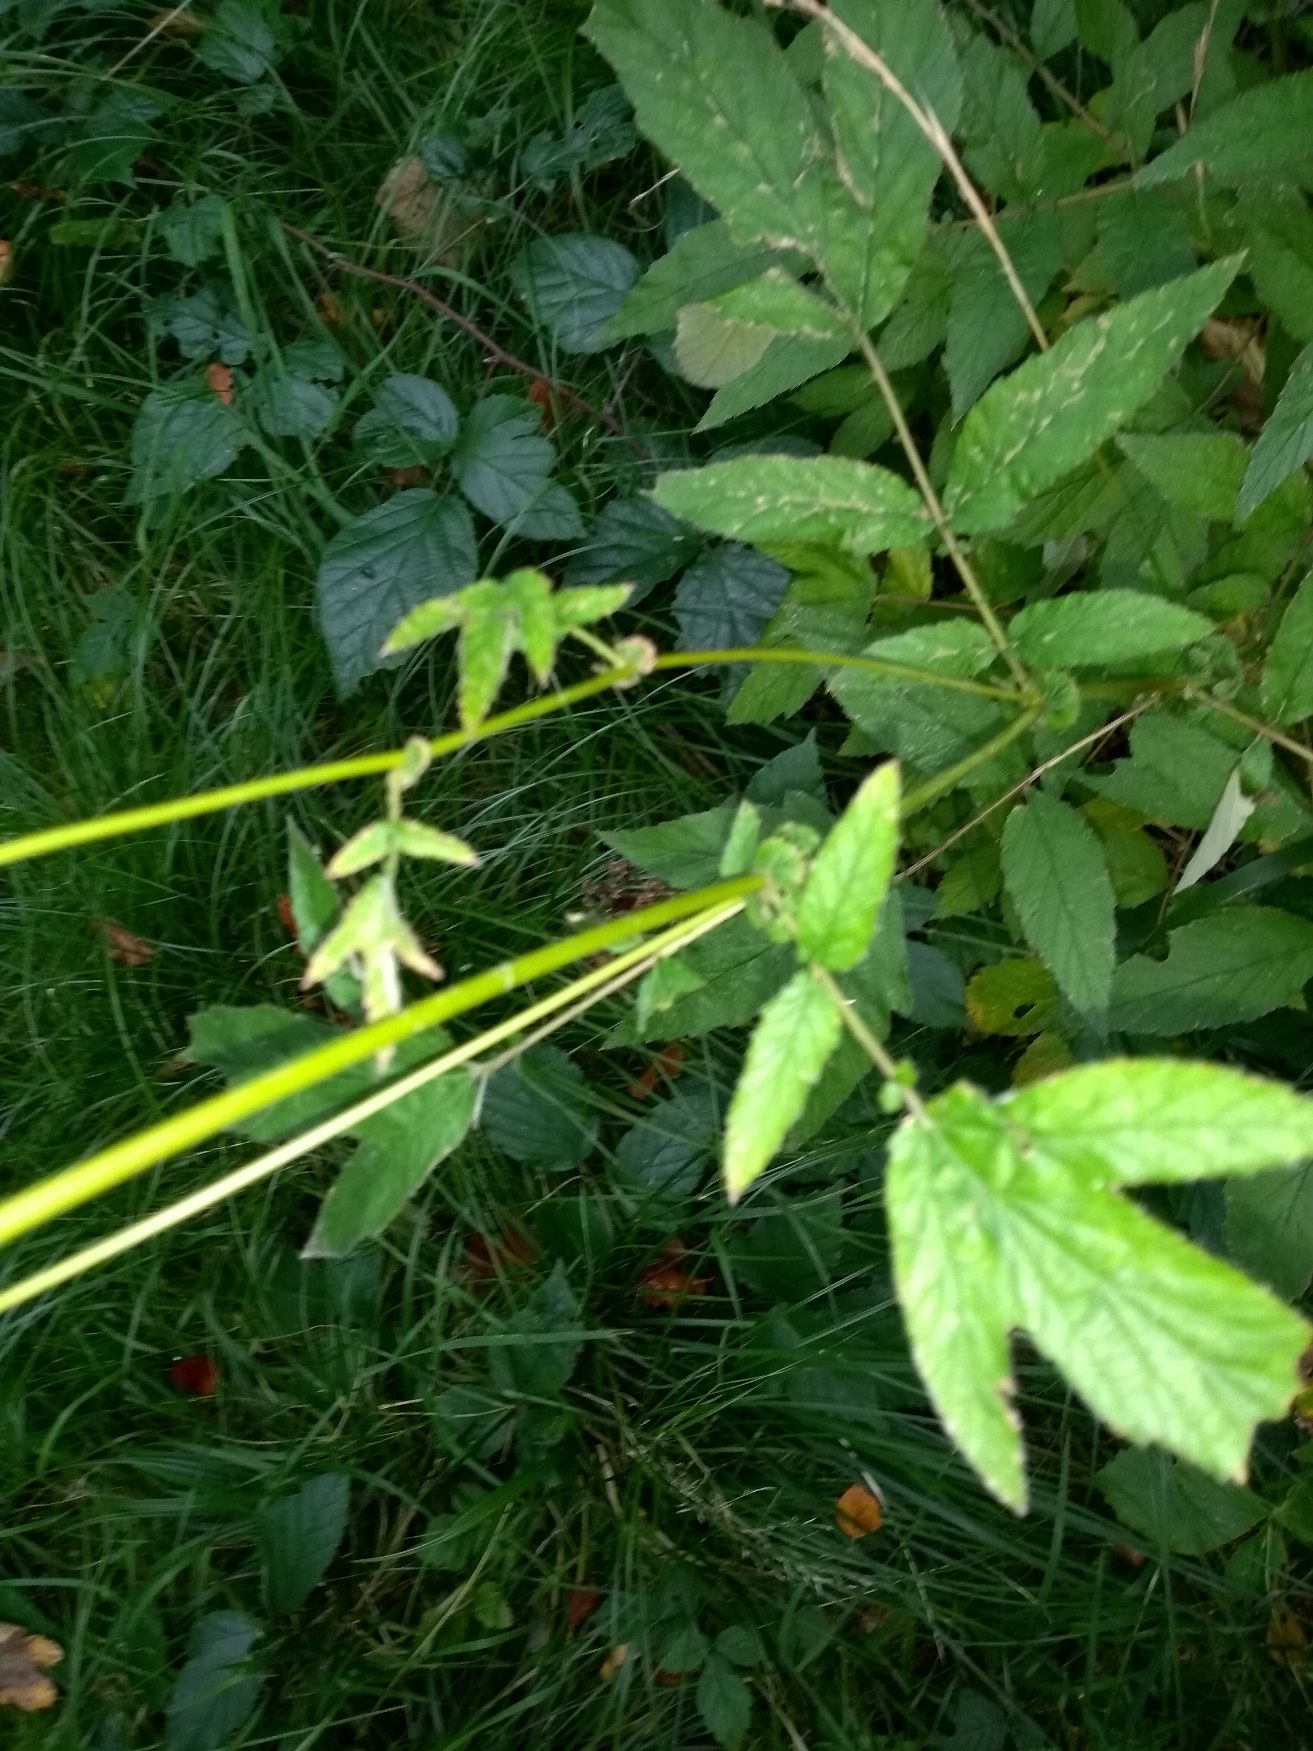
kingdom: Plantae
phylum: Tracheophyta
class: Magnoliopsida
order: Rosales
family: Rosaceae
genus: Filipendula
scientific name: Filipendula ulmaria
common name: Almindelig mjødurt
